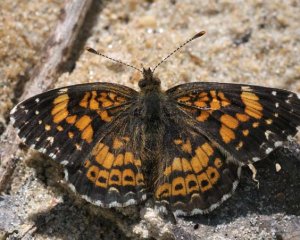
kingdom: Animalia
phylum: Arthropoda
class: Insecta
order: Lepidoptera
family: Nymphalidae
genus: Chlosyne
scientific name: Chlosyne gorgone
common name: Gorgone Checkerspot
